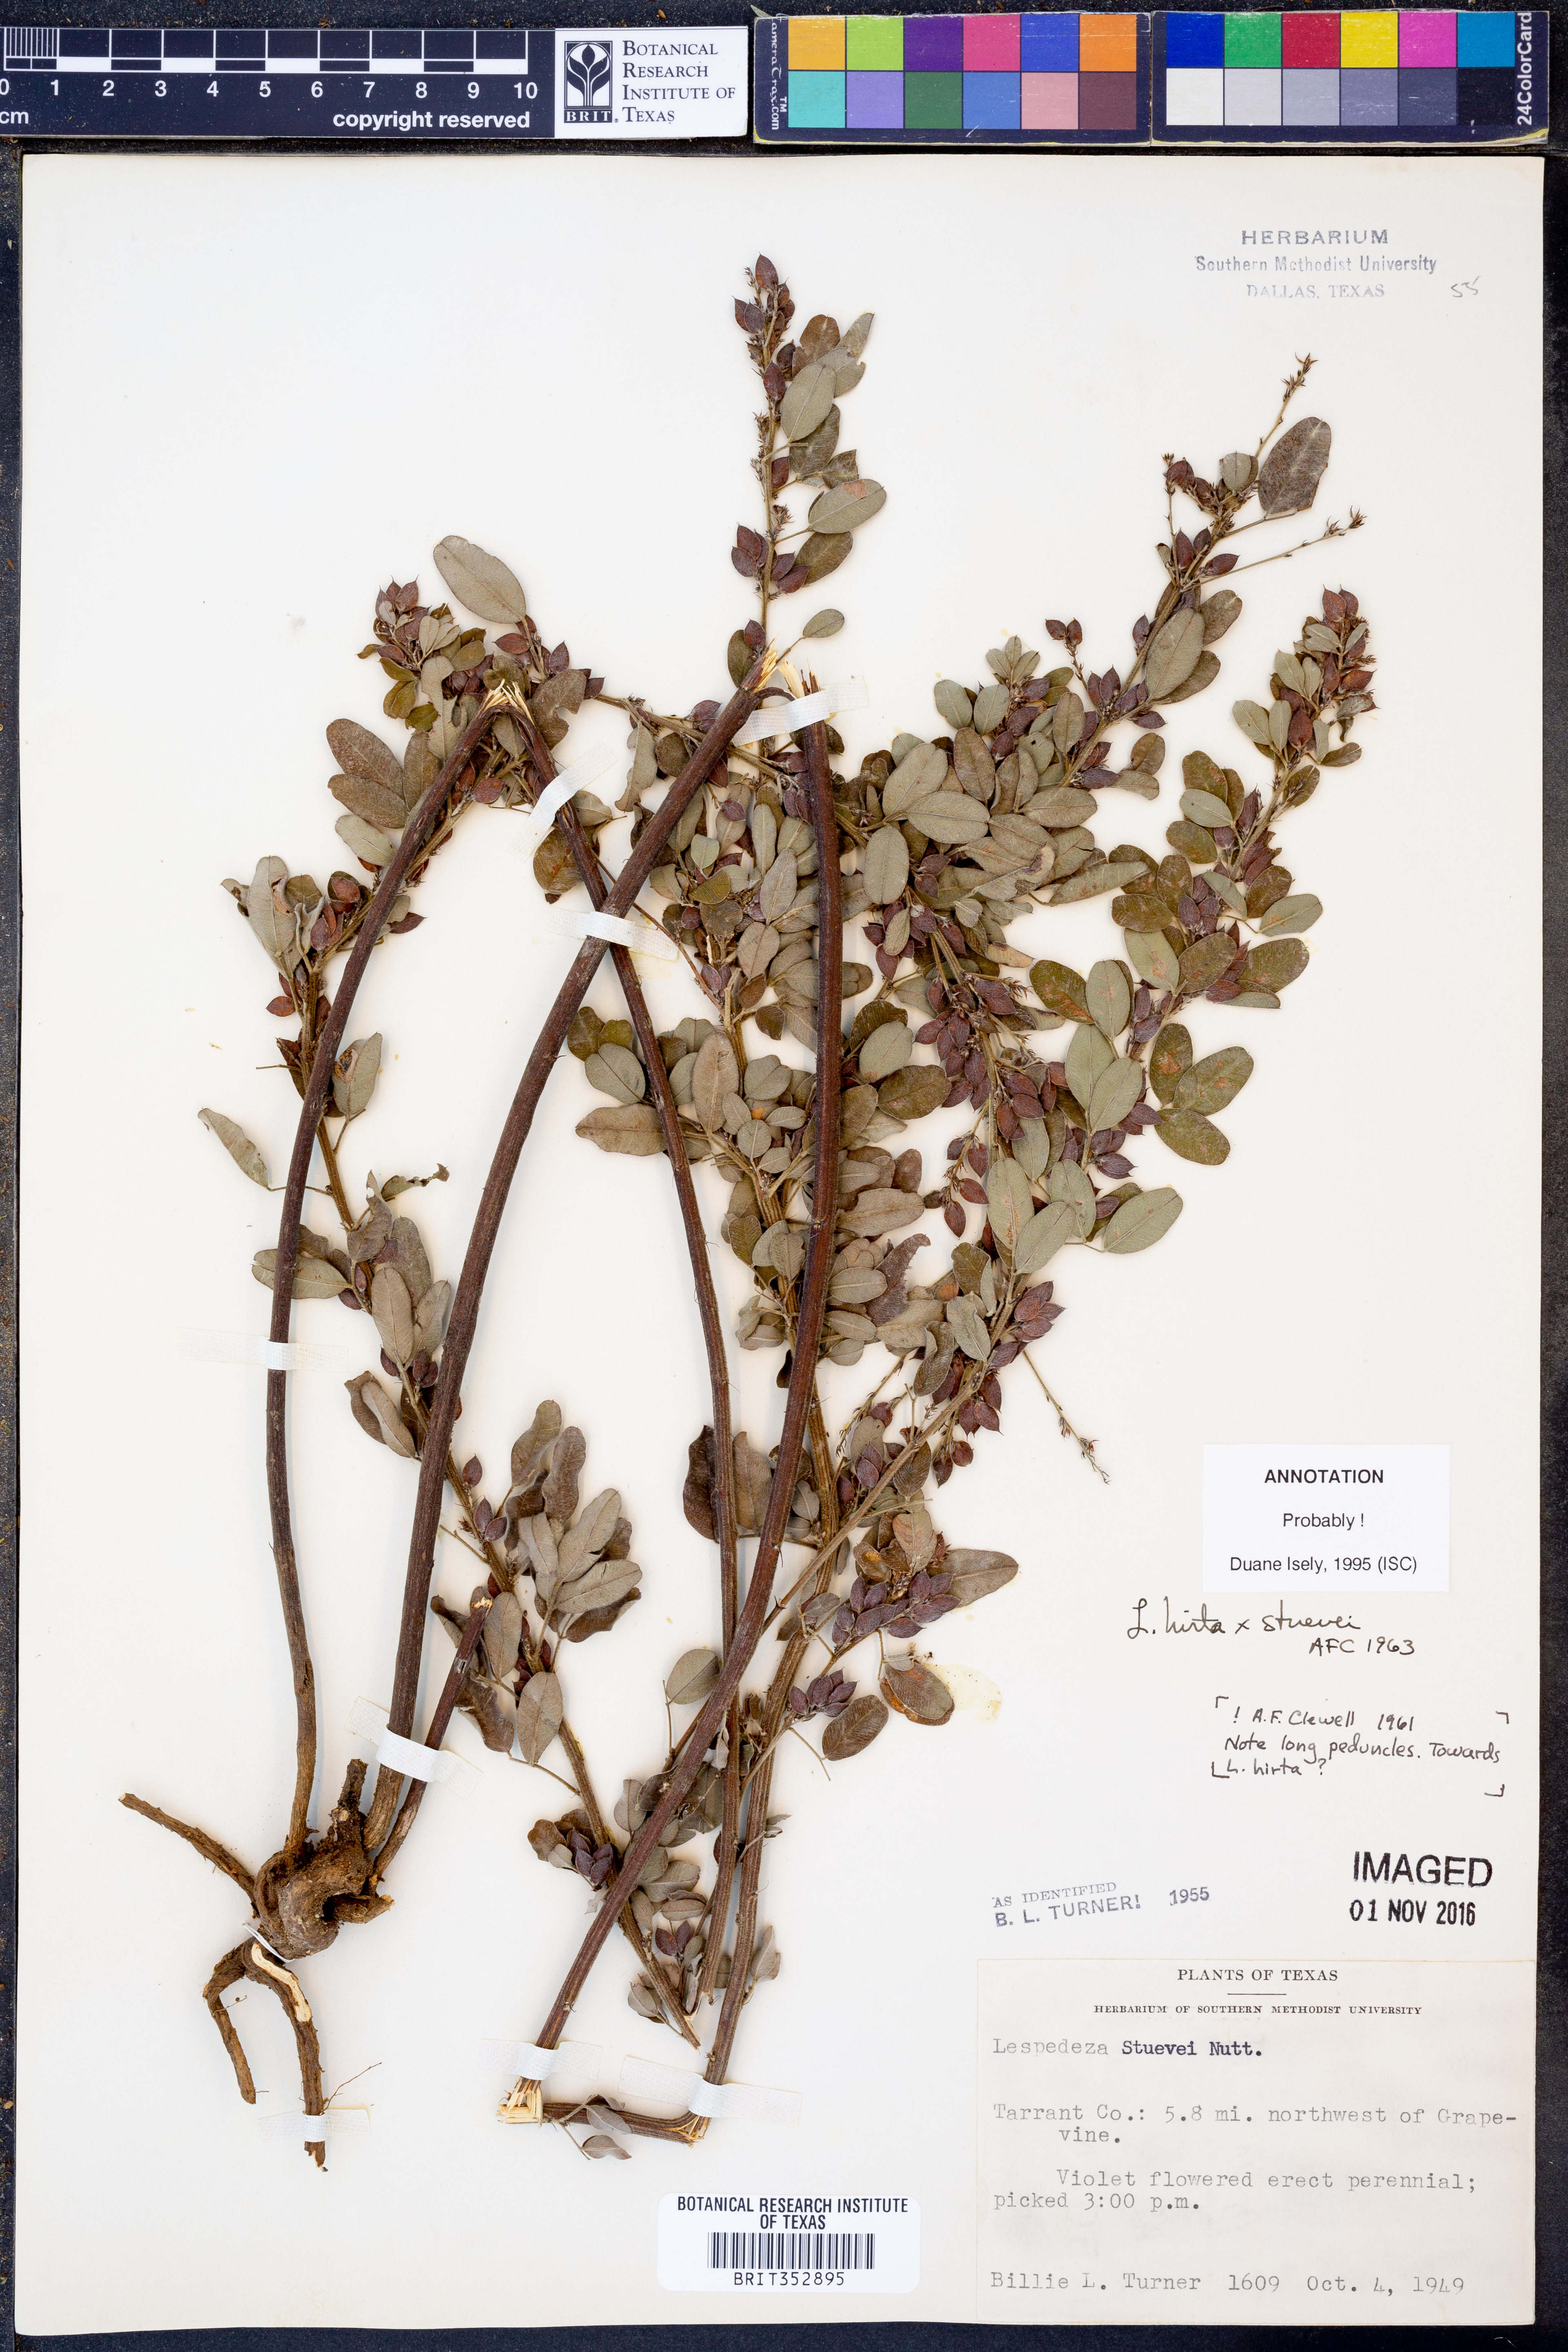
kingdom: Plantae
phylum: Tracheophyta
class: Magnoliopsida
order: Fabales
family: Fabaceae
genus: Lespedeza
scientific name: Lespedeza stuevei
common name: Tall bush-clover
